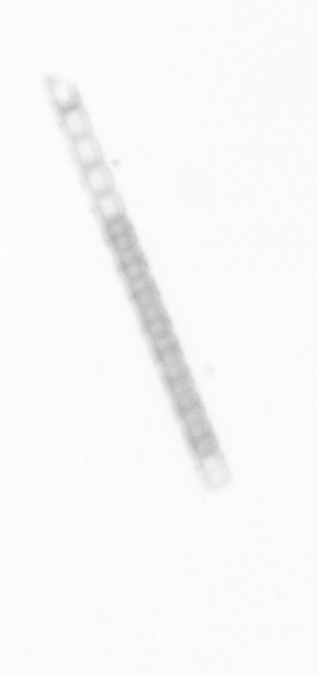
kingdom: Chromista
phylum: Ochrophyta
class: Bacillariophyceae
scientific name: Bacillariophyceae
